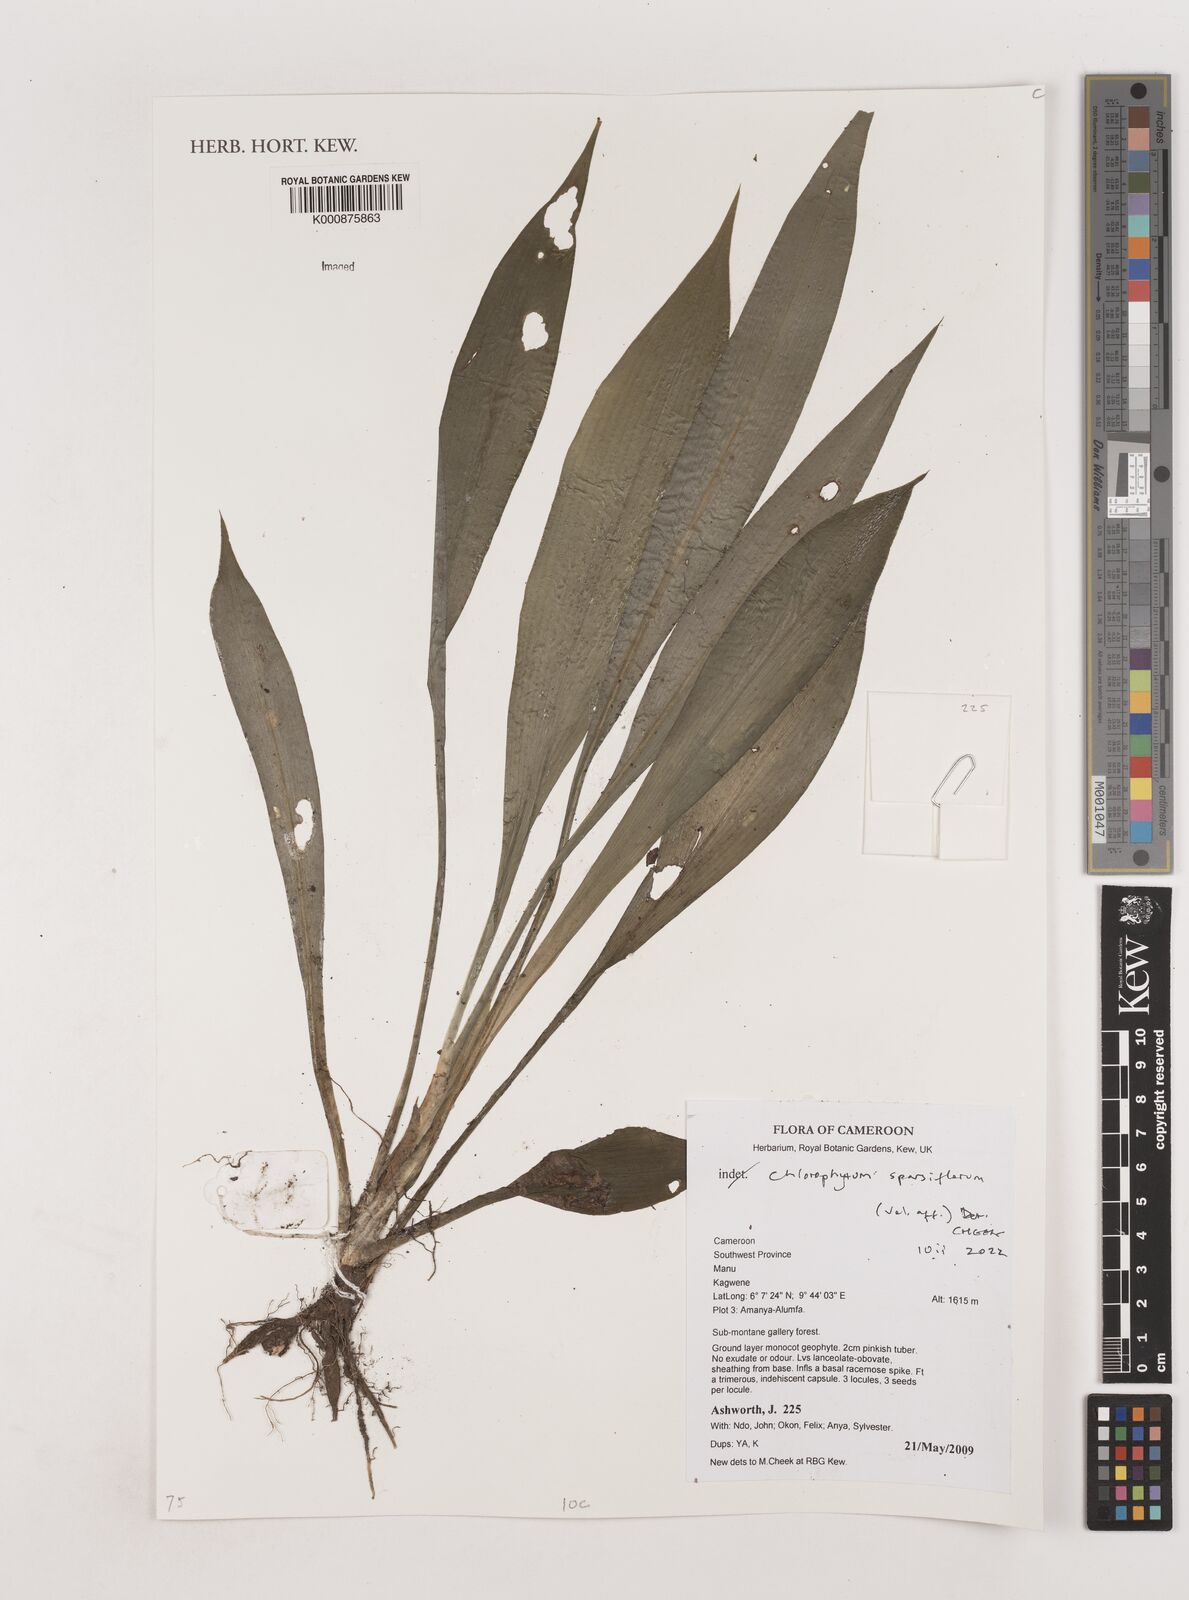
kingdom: Plantae
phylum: Tracheophyta
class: Liliopsida
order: Asparagales
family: Asparagaceae
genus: Chlorophytum
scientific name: Chlorophytum sparsiflorum
